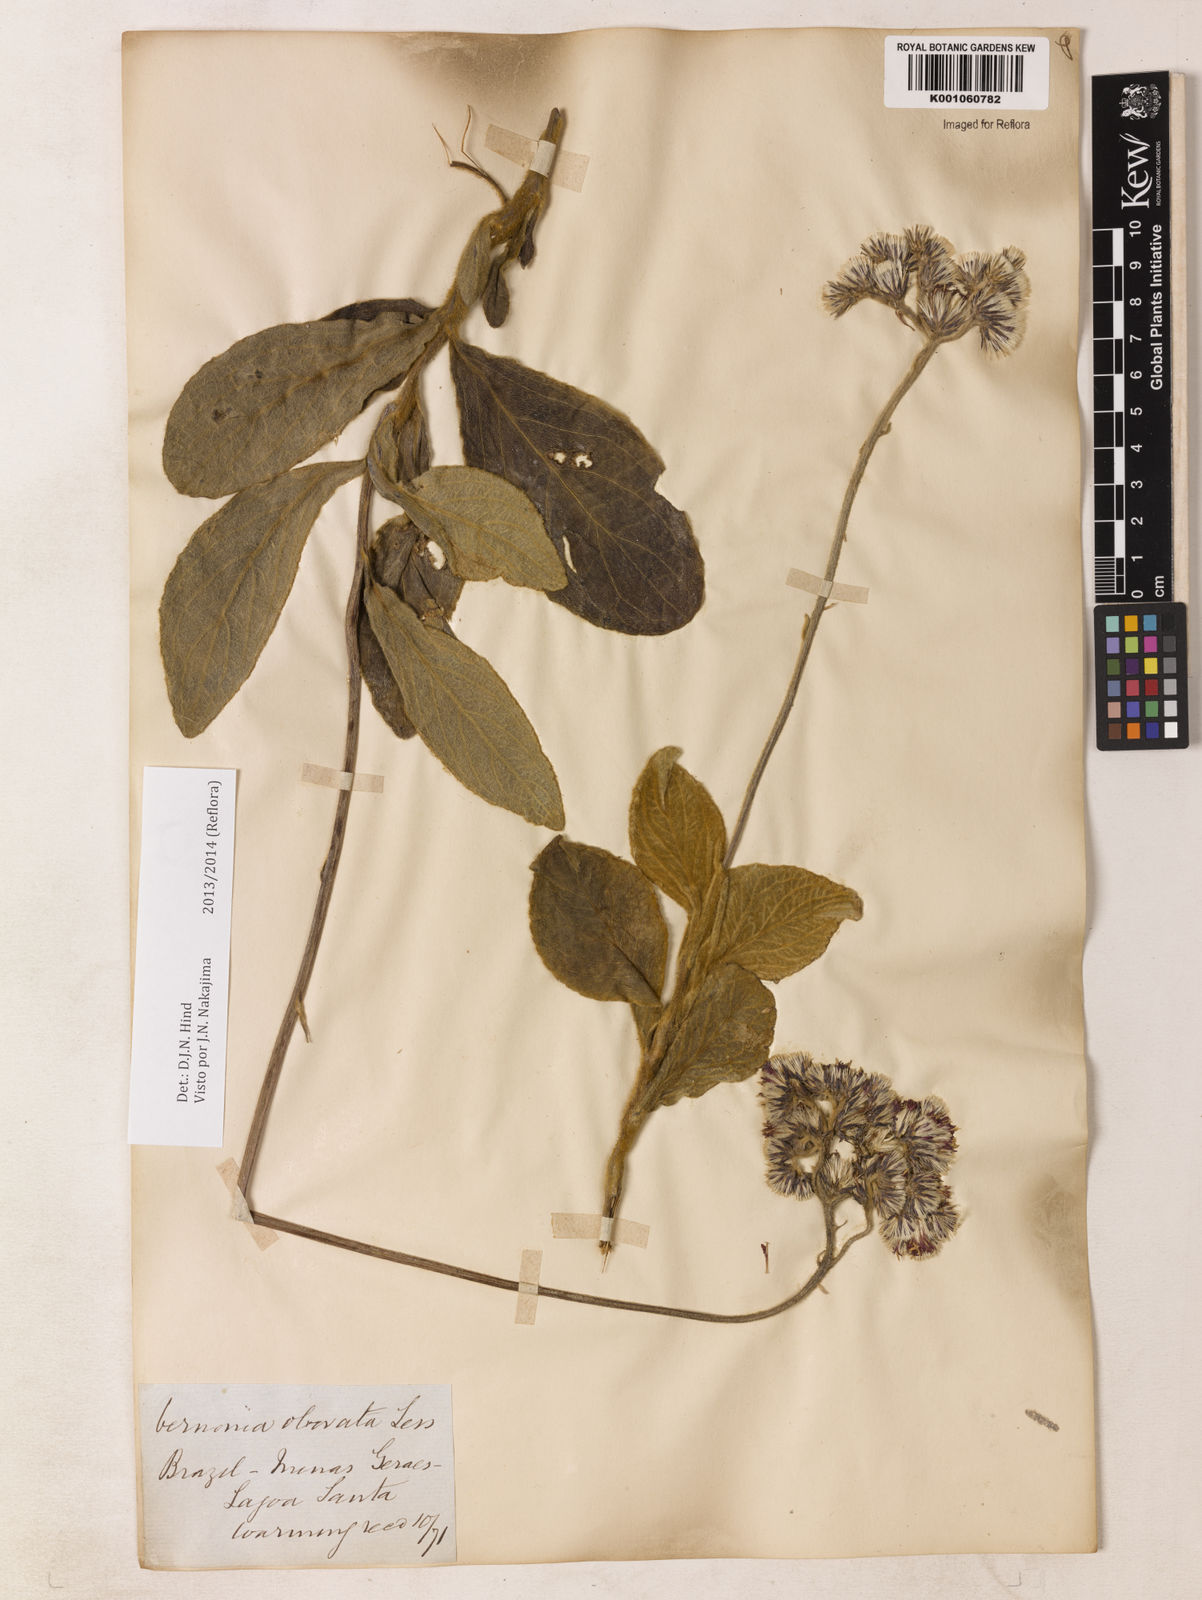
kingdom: Plantae
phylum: Tracheophyta
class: Magnoliopsida
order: Asterales
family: Asteraceae
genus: Chrysolaena
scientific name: Chrysolaena obovata
